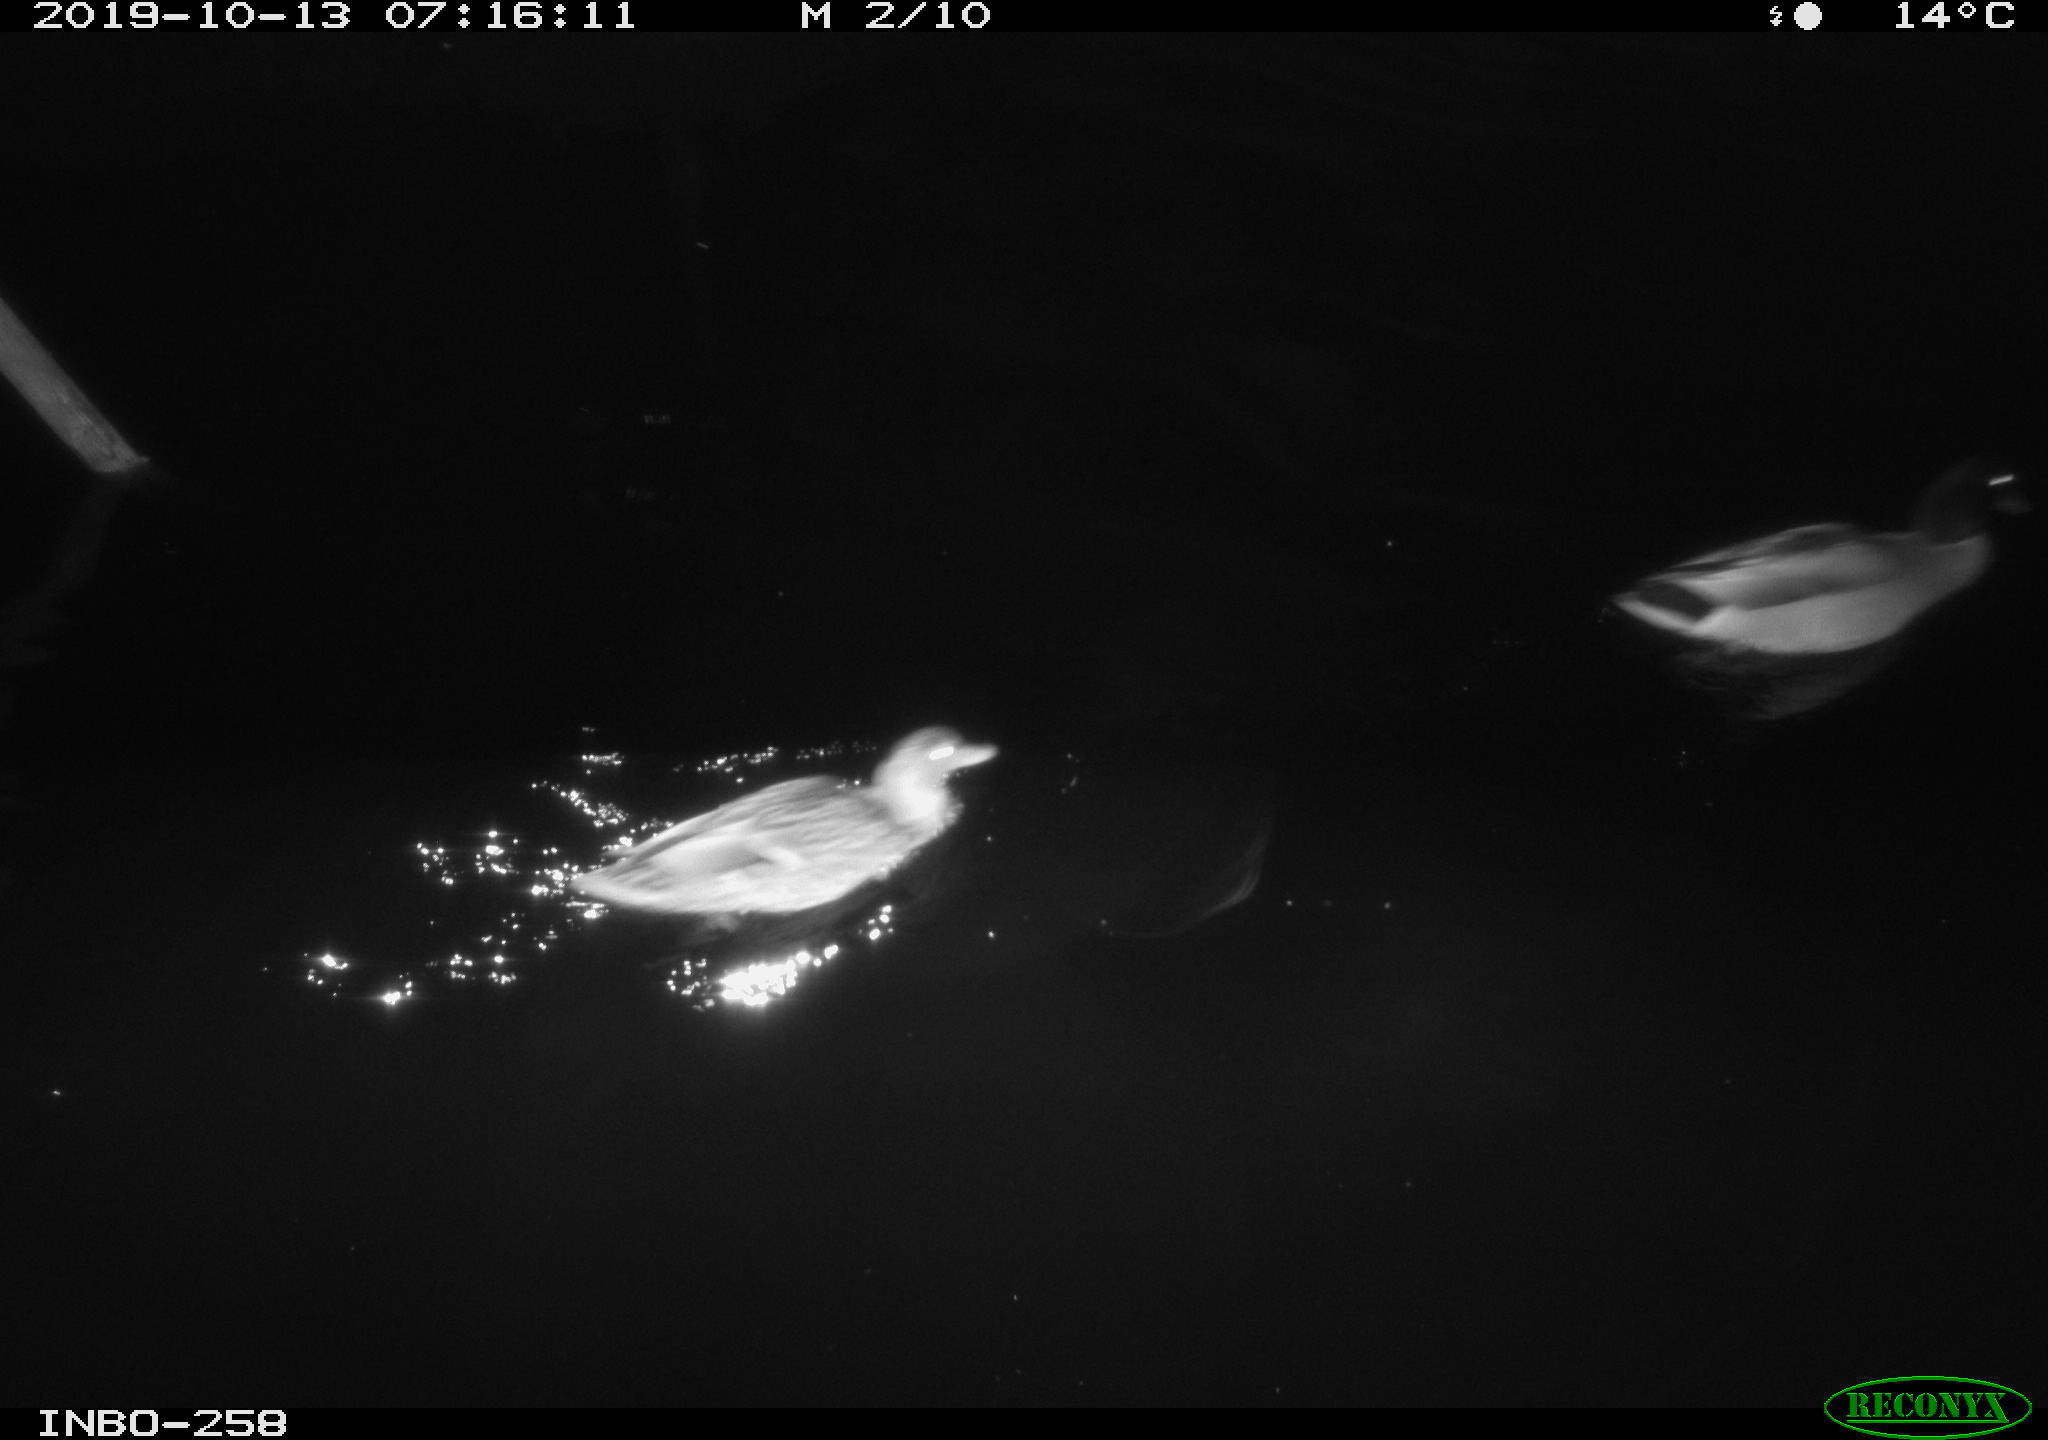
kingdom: Animalia
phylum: Chordata
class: Aves
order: Anseriformes
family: Anatidae
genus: Anas
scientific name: Anas platyrhynchos
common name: Mallard
